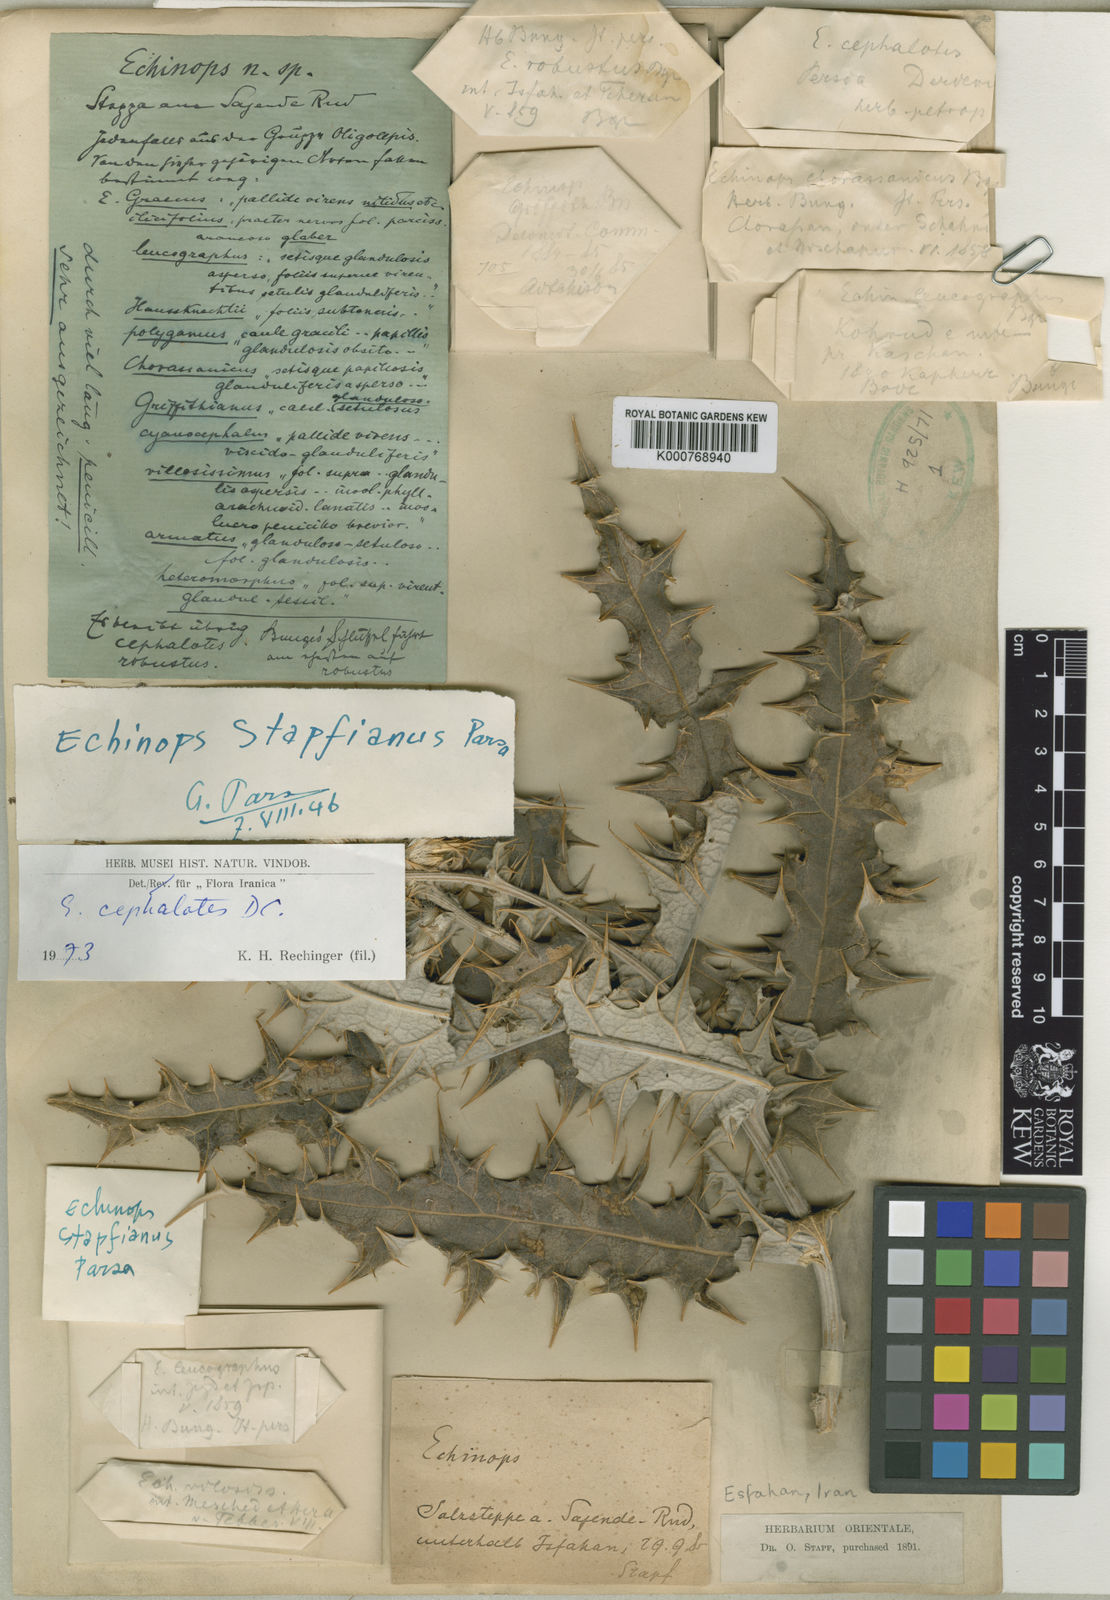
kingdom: Plantae
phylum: Tracheophyta
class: Magnoliopsida
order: Asterales
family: Asteraceae
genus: Echinops
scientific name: Echinops cephalotes
